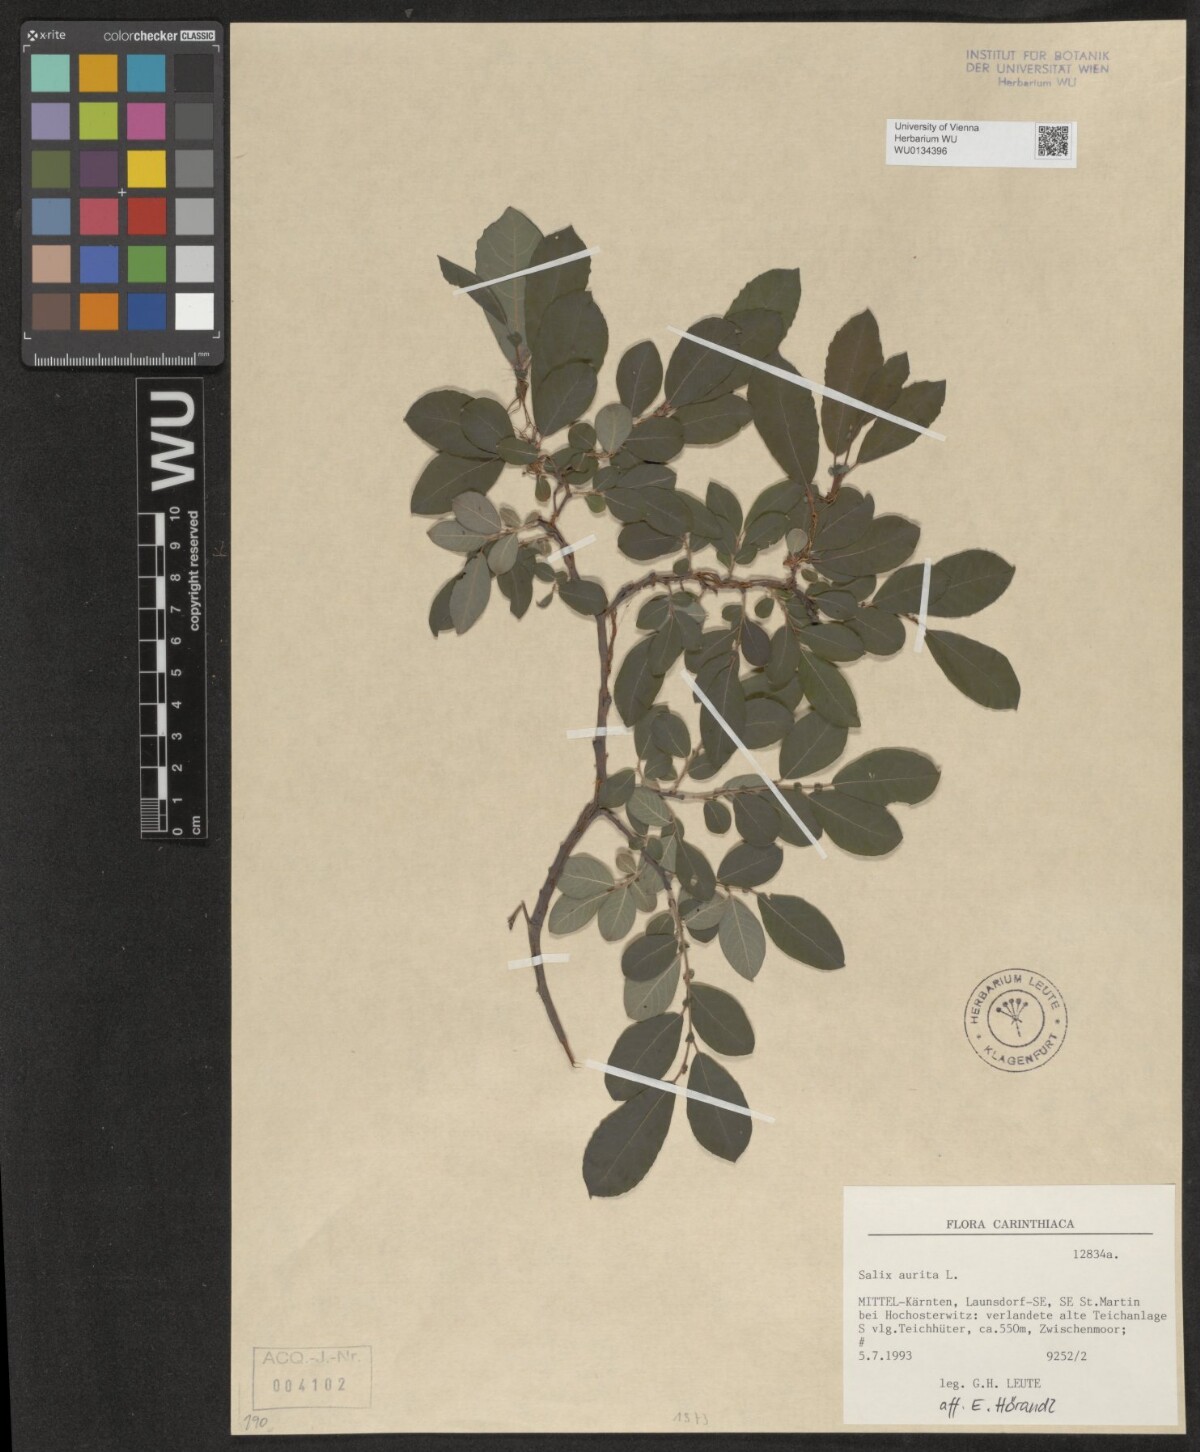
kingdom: Plantae
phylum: Tracheophyta
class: Magnoliopsida
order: Malpighiales
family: Salicaceae
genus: Salix
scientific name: Salix aurita
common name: Eared willow
